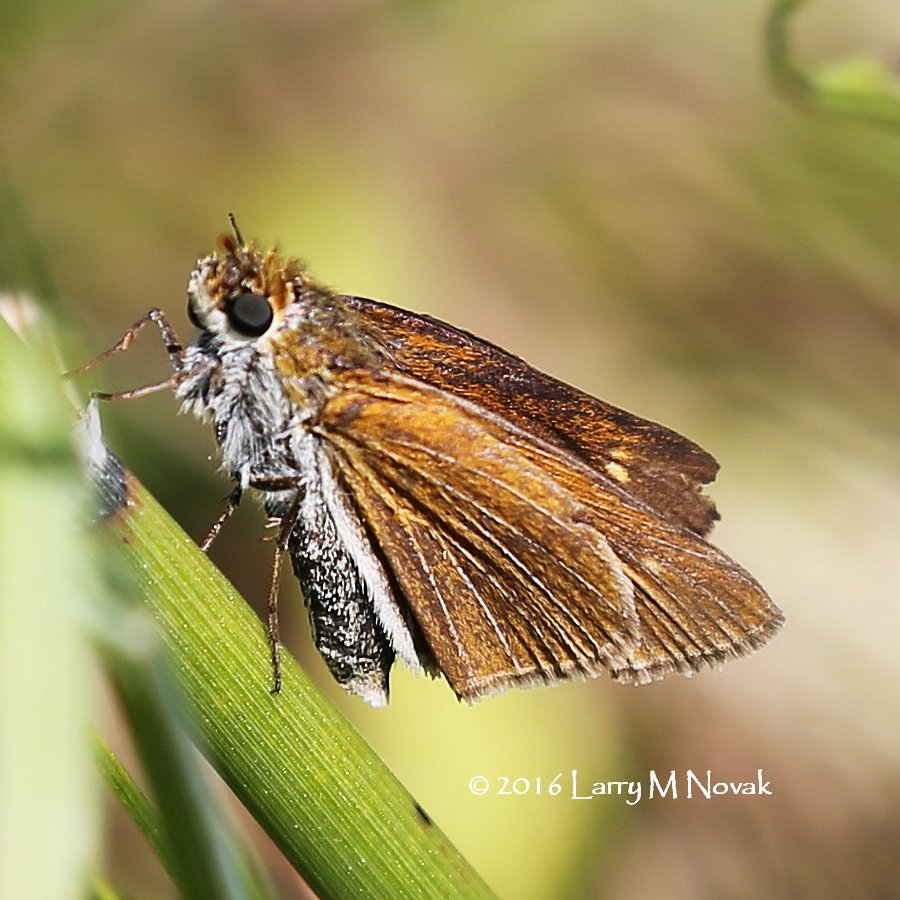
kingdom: Animalia
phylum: Arthropoda
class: Insecta
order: Lepidoptera
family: Hesperiidae
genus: Euphyes
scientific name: Euphyes bimacula
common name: Two-spotted Skipper
